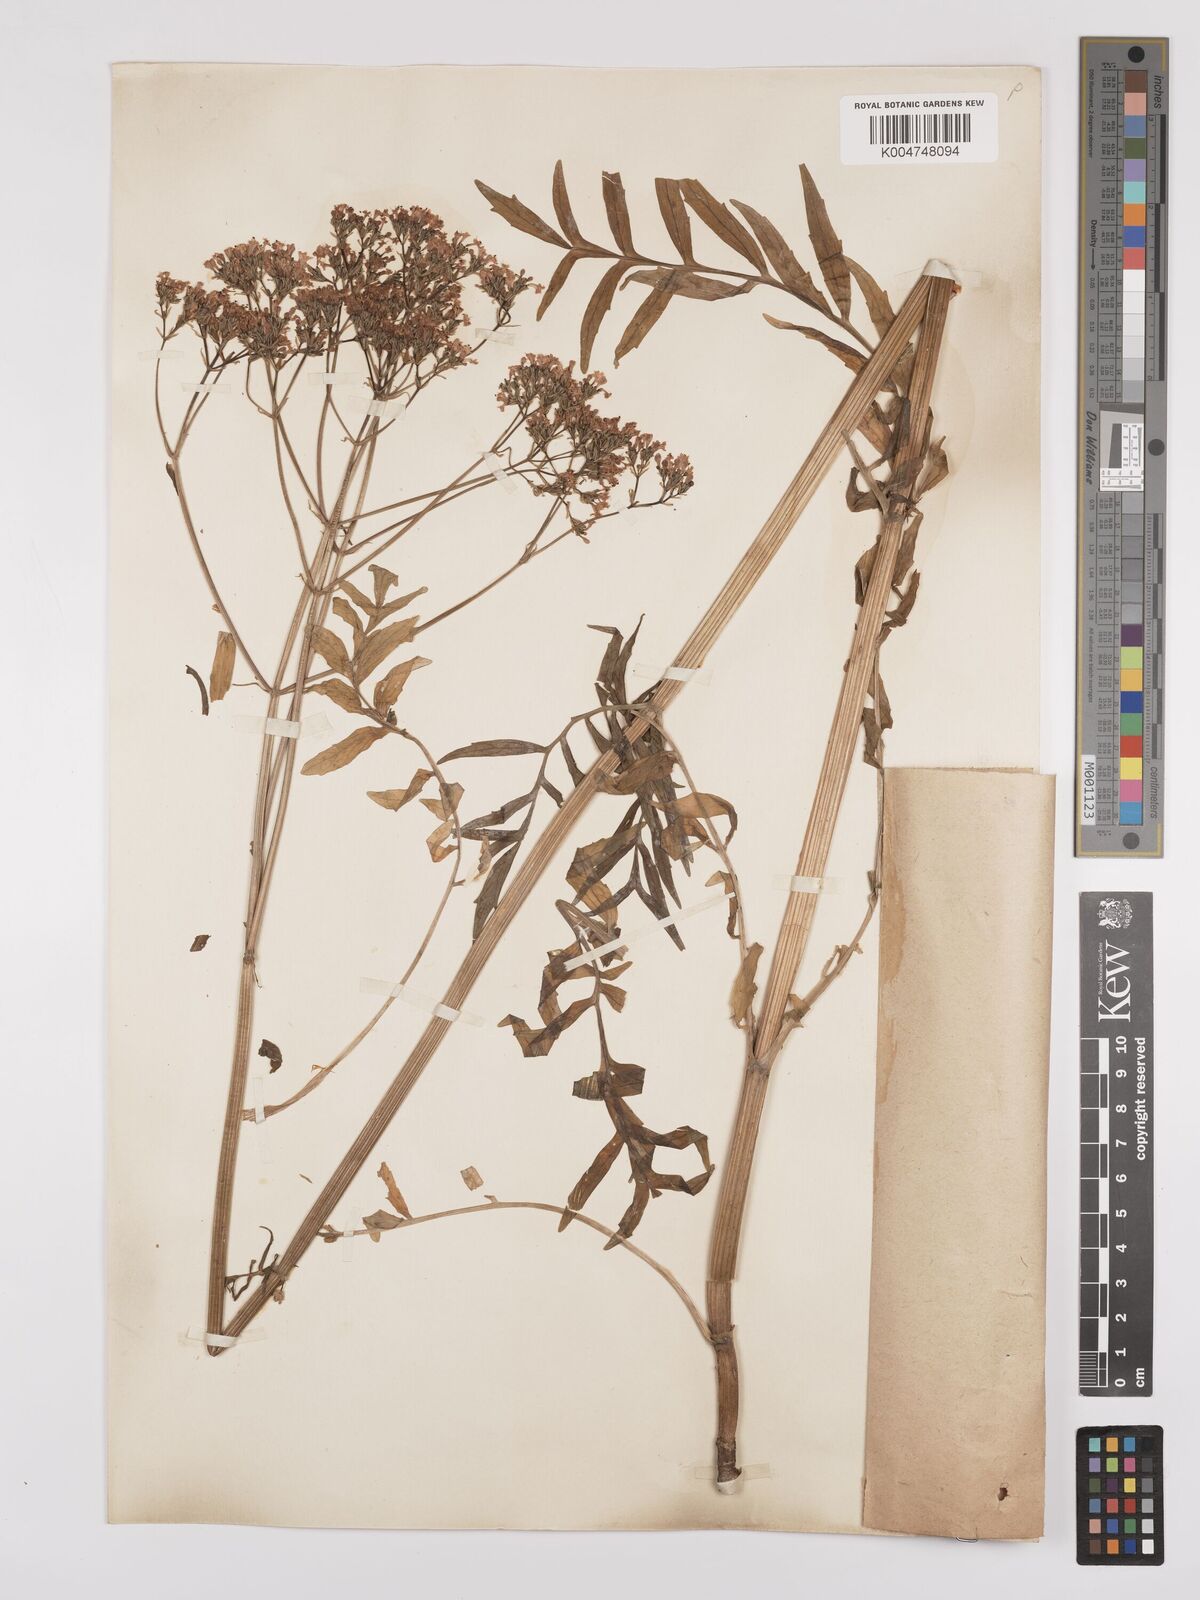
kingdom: Plantae
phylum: Tracheophyta
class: Magnoliopsida
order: Dipsacales
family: Caprifoliaceae
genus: Valeriana
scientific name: Valeriana wolgensis
